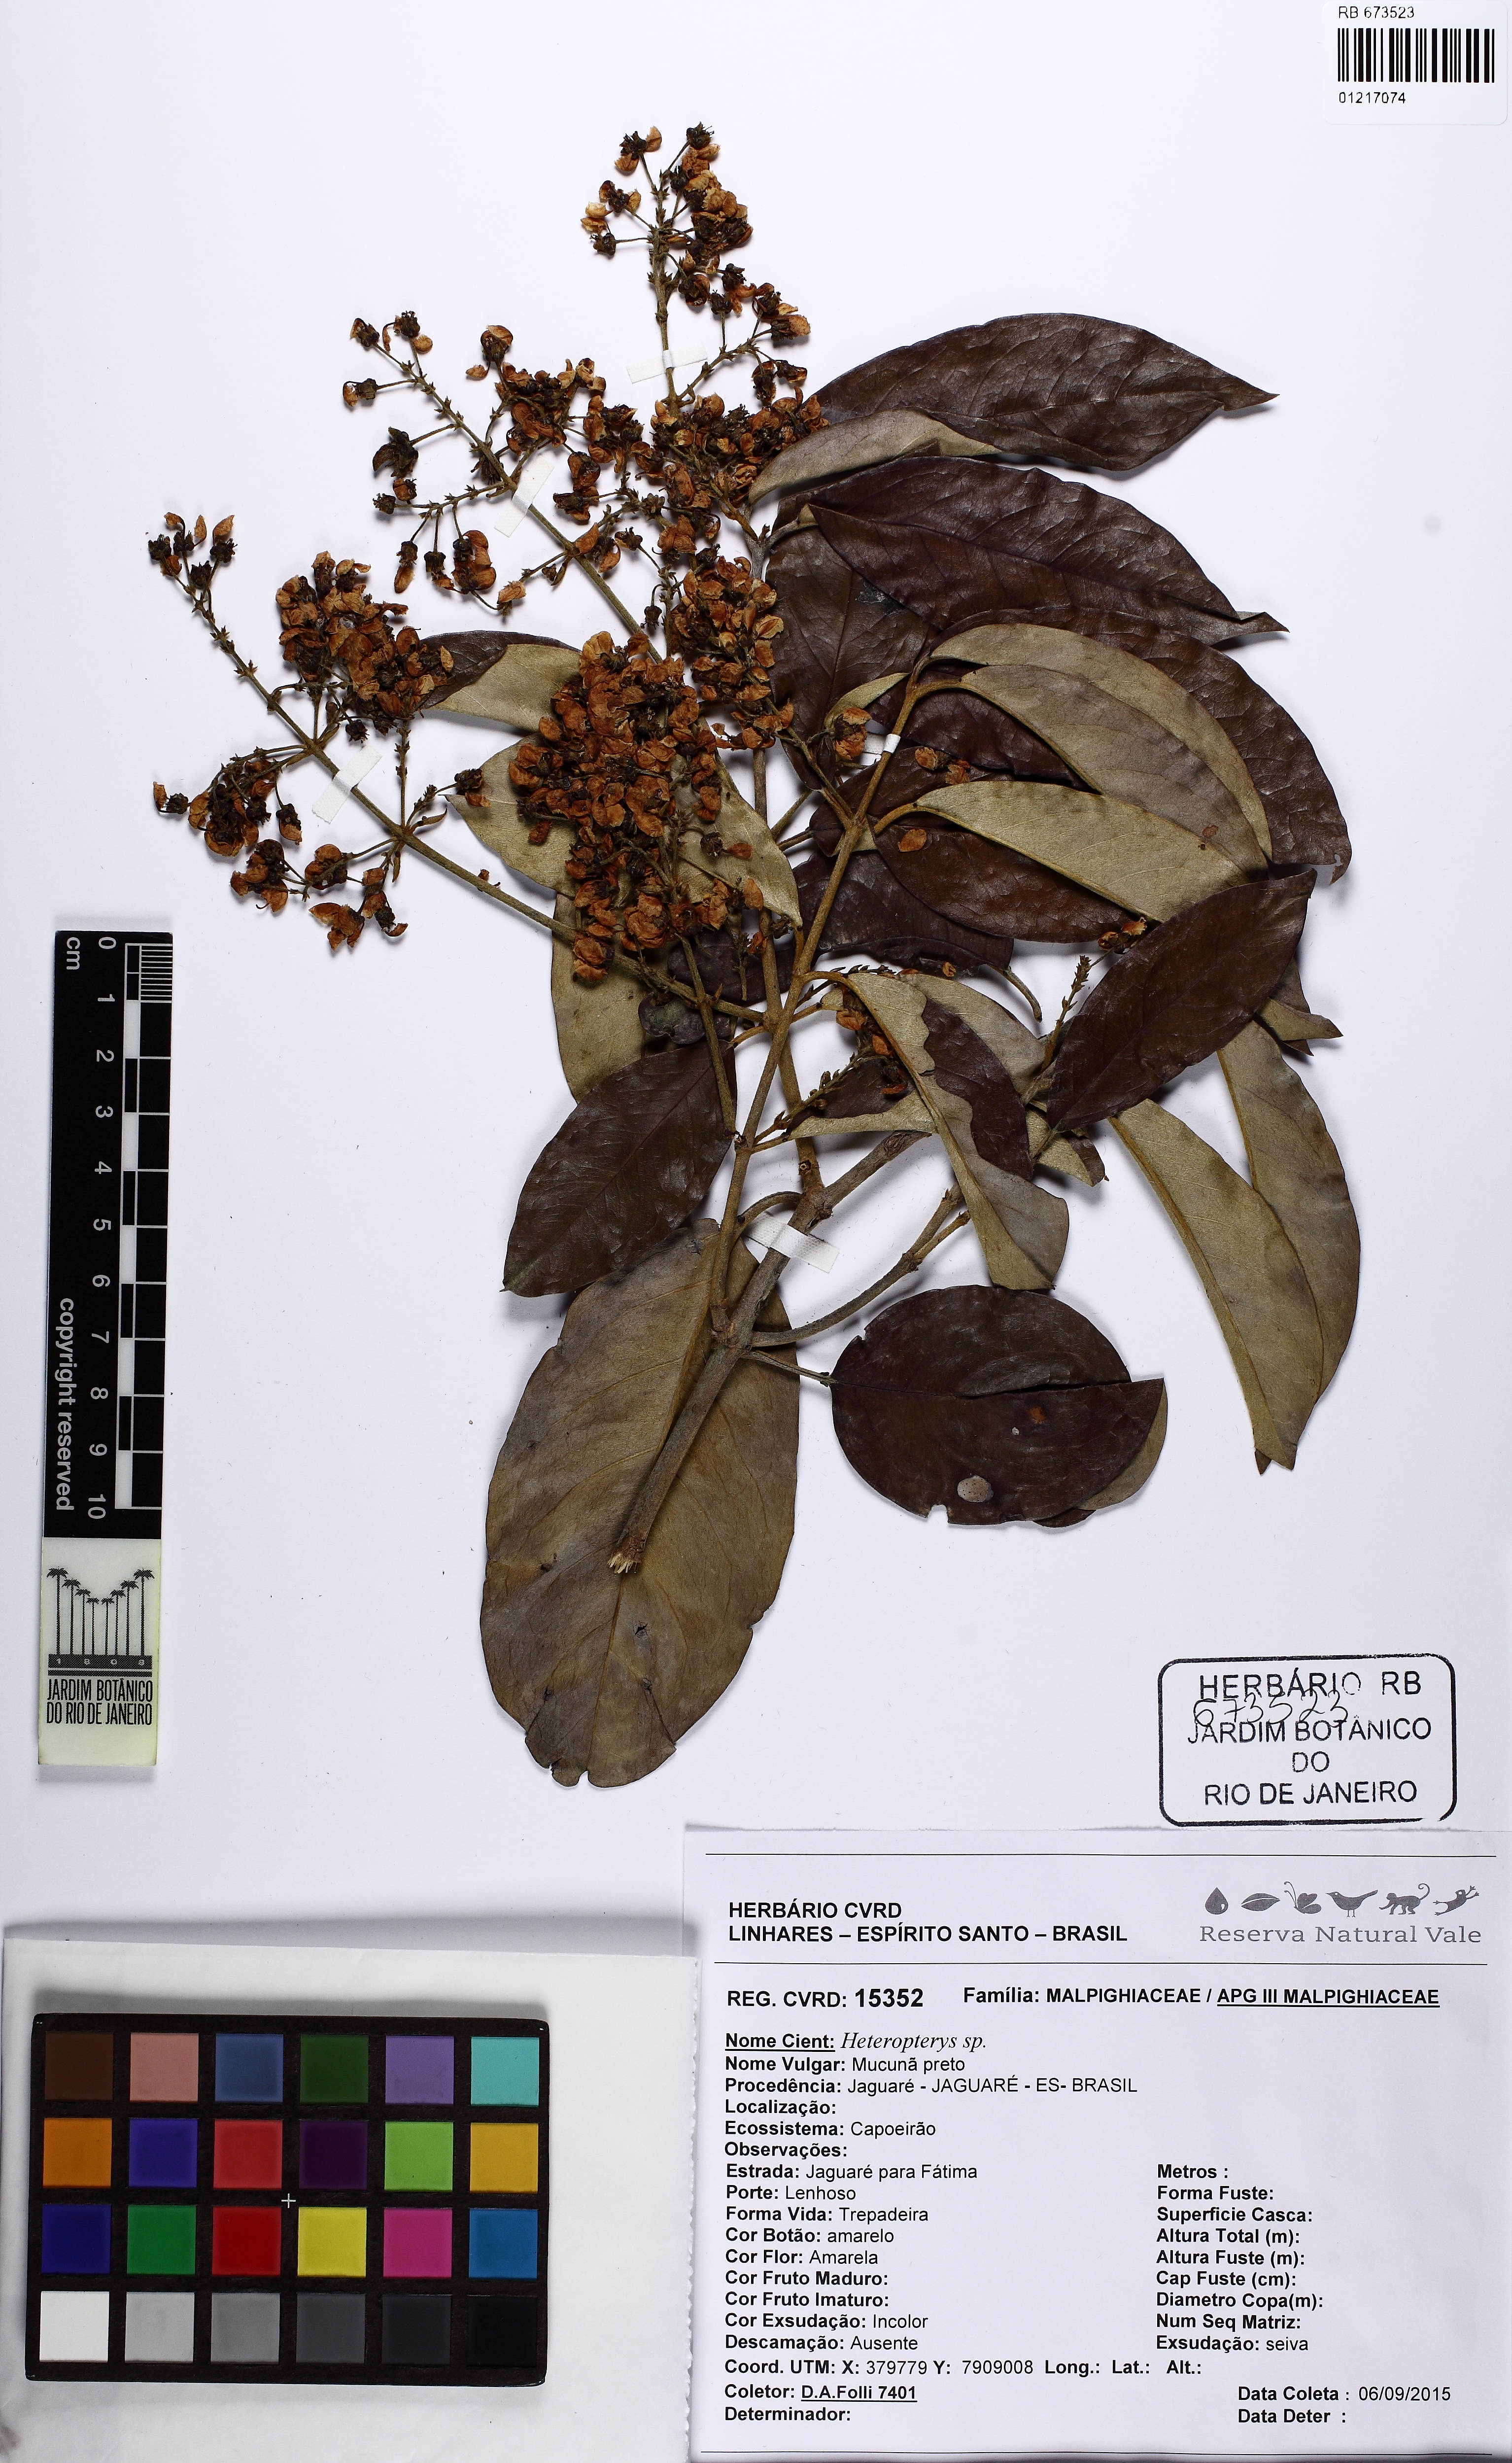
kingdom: Plantae
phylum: Tracheophyta
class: Magnoliopsida
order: Malpighiales
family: Malpighiaceae
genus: Banisteriopsis
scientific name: Banisteriopsis nummifera
